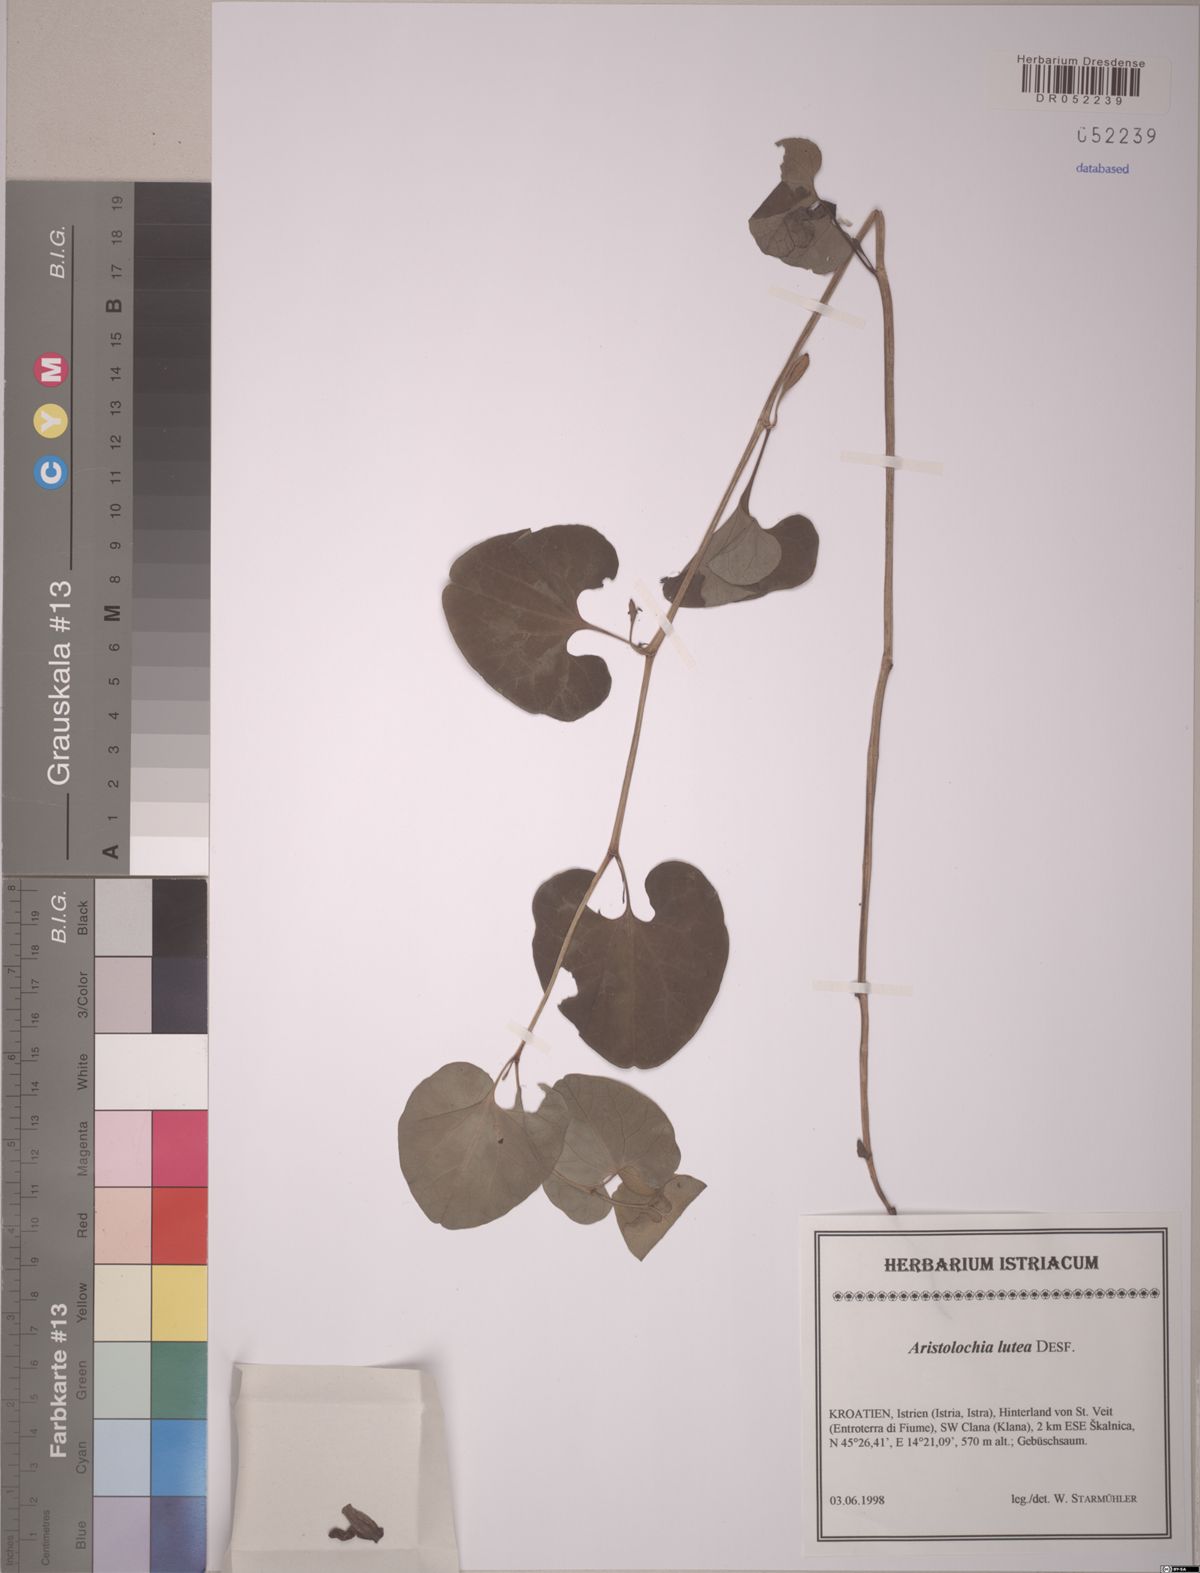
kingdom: Plantae
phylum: Tracheophyta
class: Magnoliopsida
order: Piperales
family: Aristolochiaceae
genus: Aristolochia
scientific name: Aristolochia lutea
